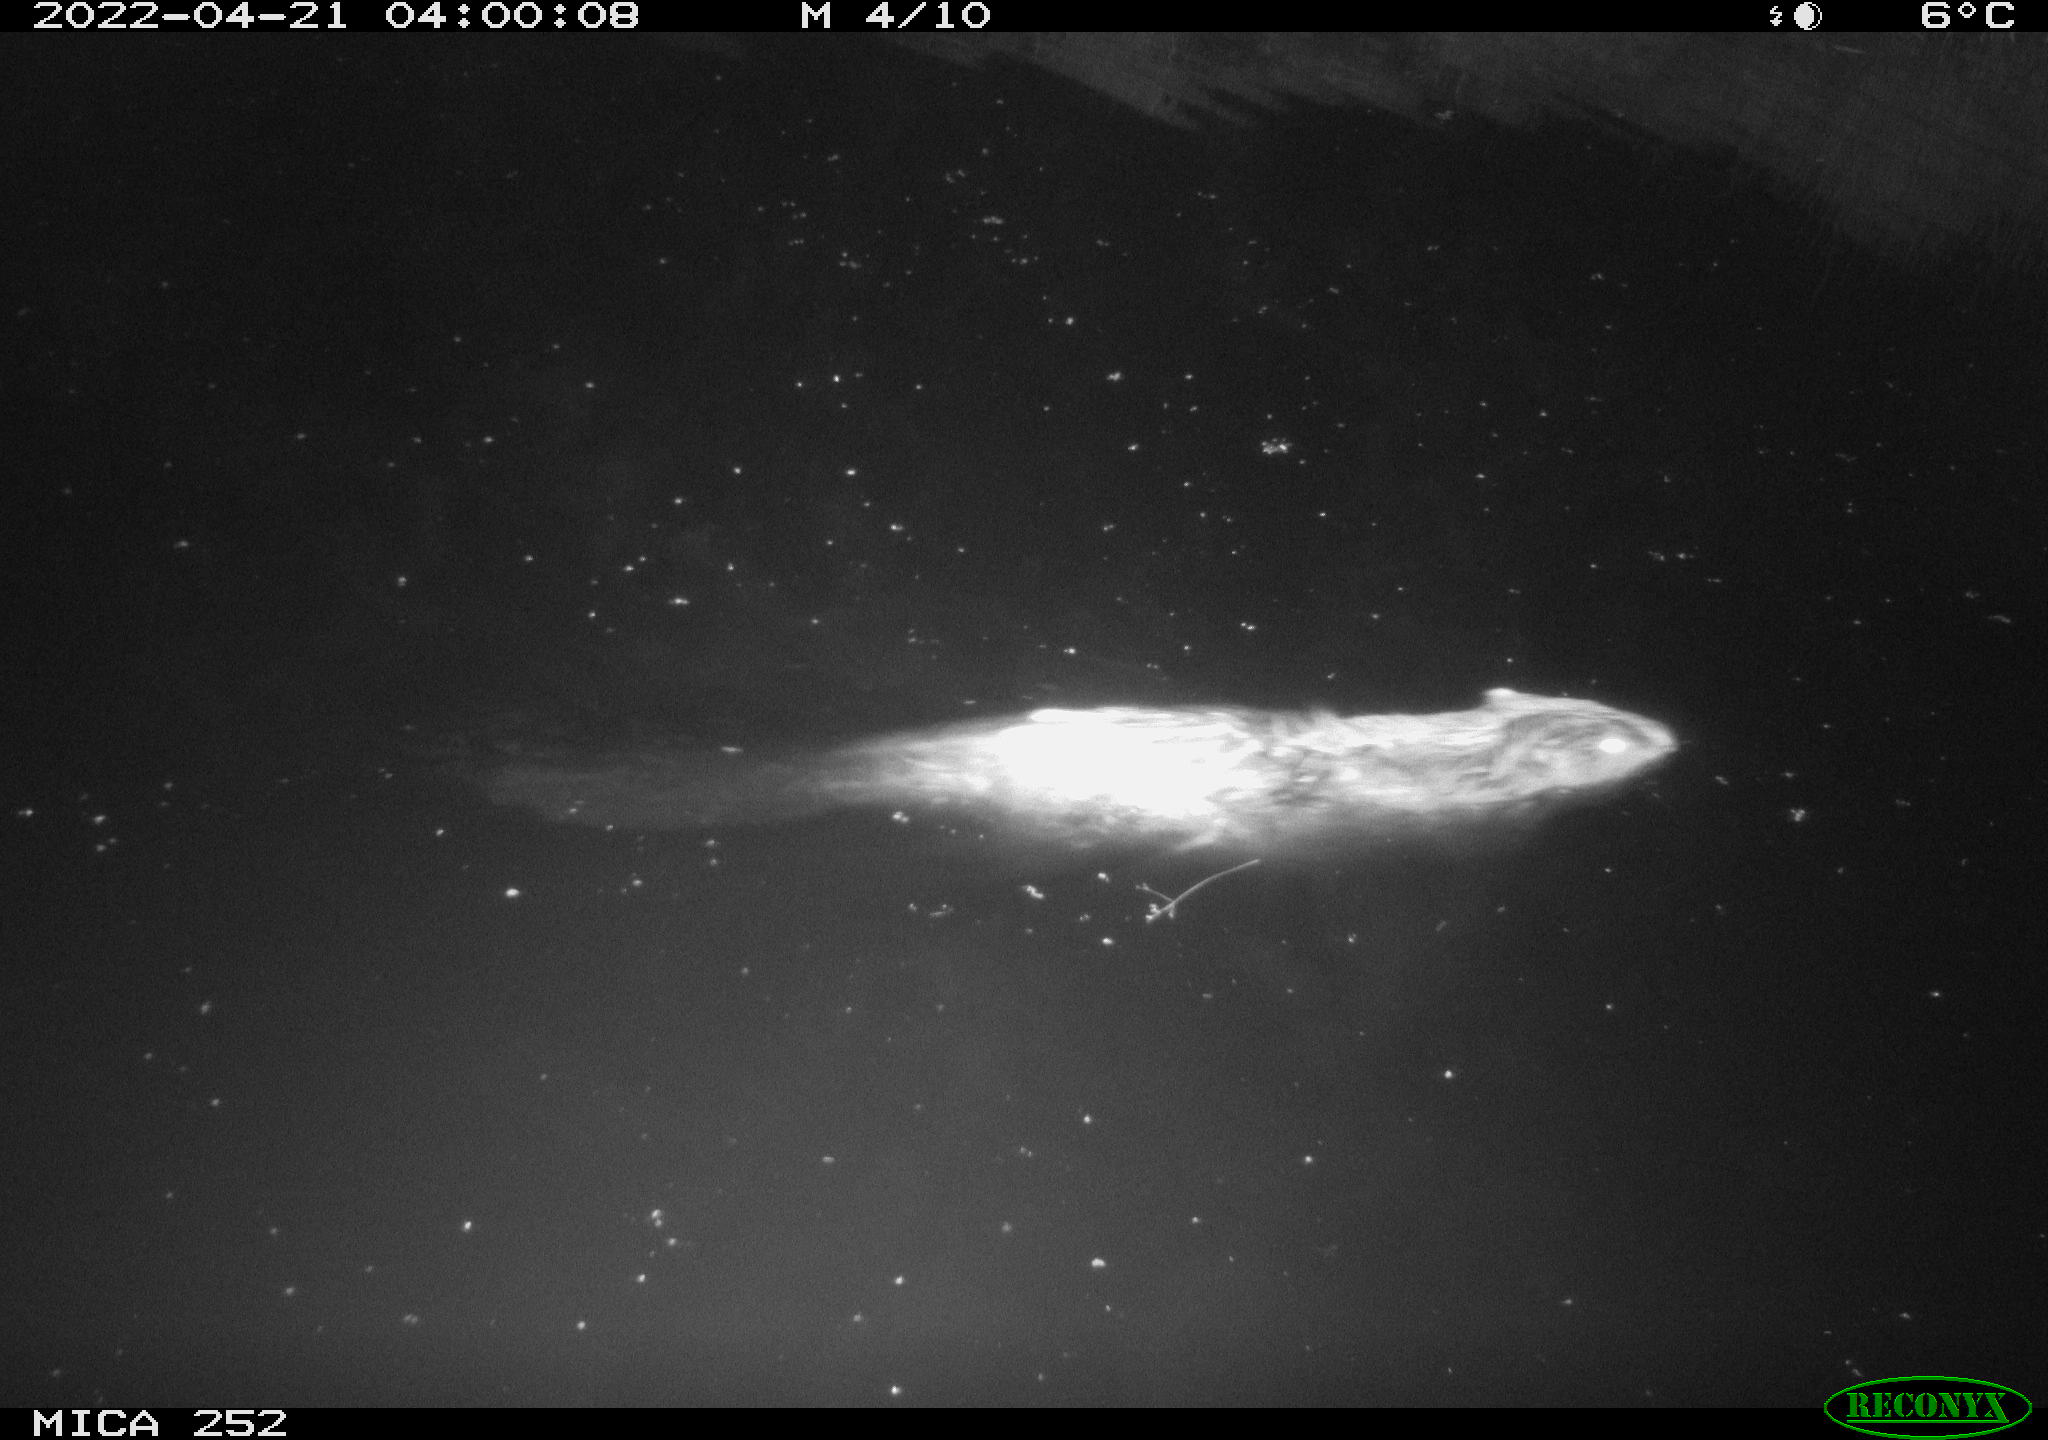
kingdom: Animalia
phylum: Chordata
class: Mammalia
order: Rodentia
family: Castoridae
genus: Castor
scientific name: Castor fiber
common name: Eurasian beaver
